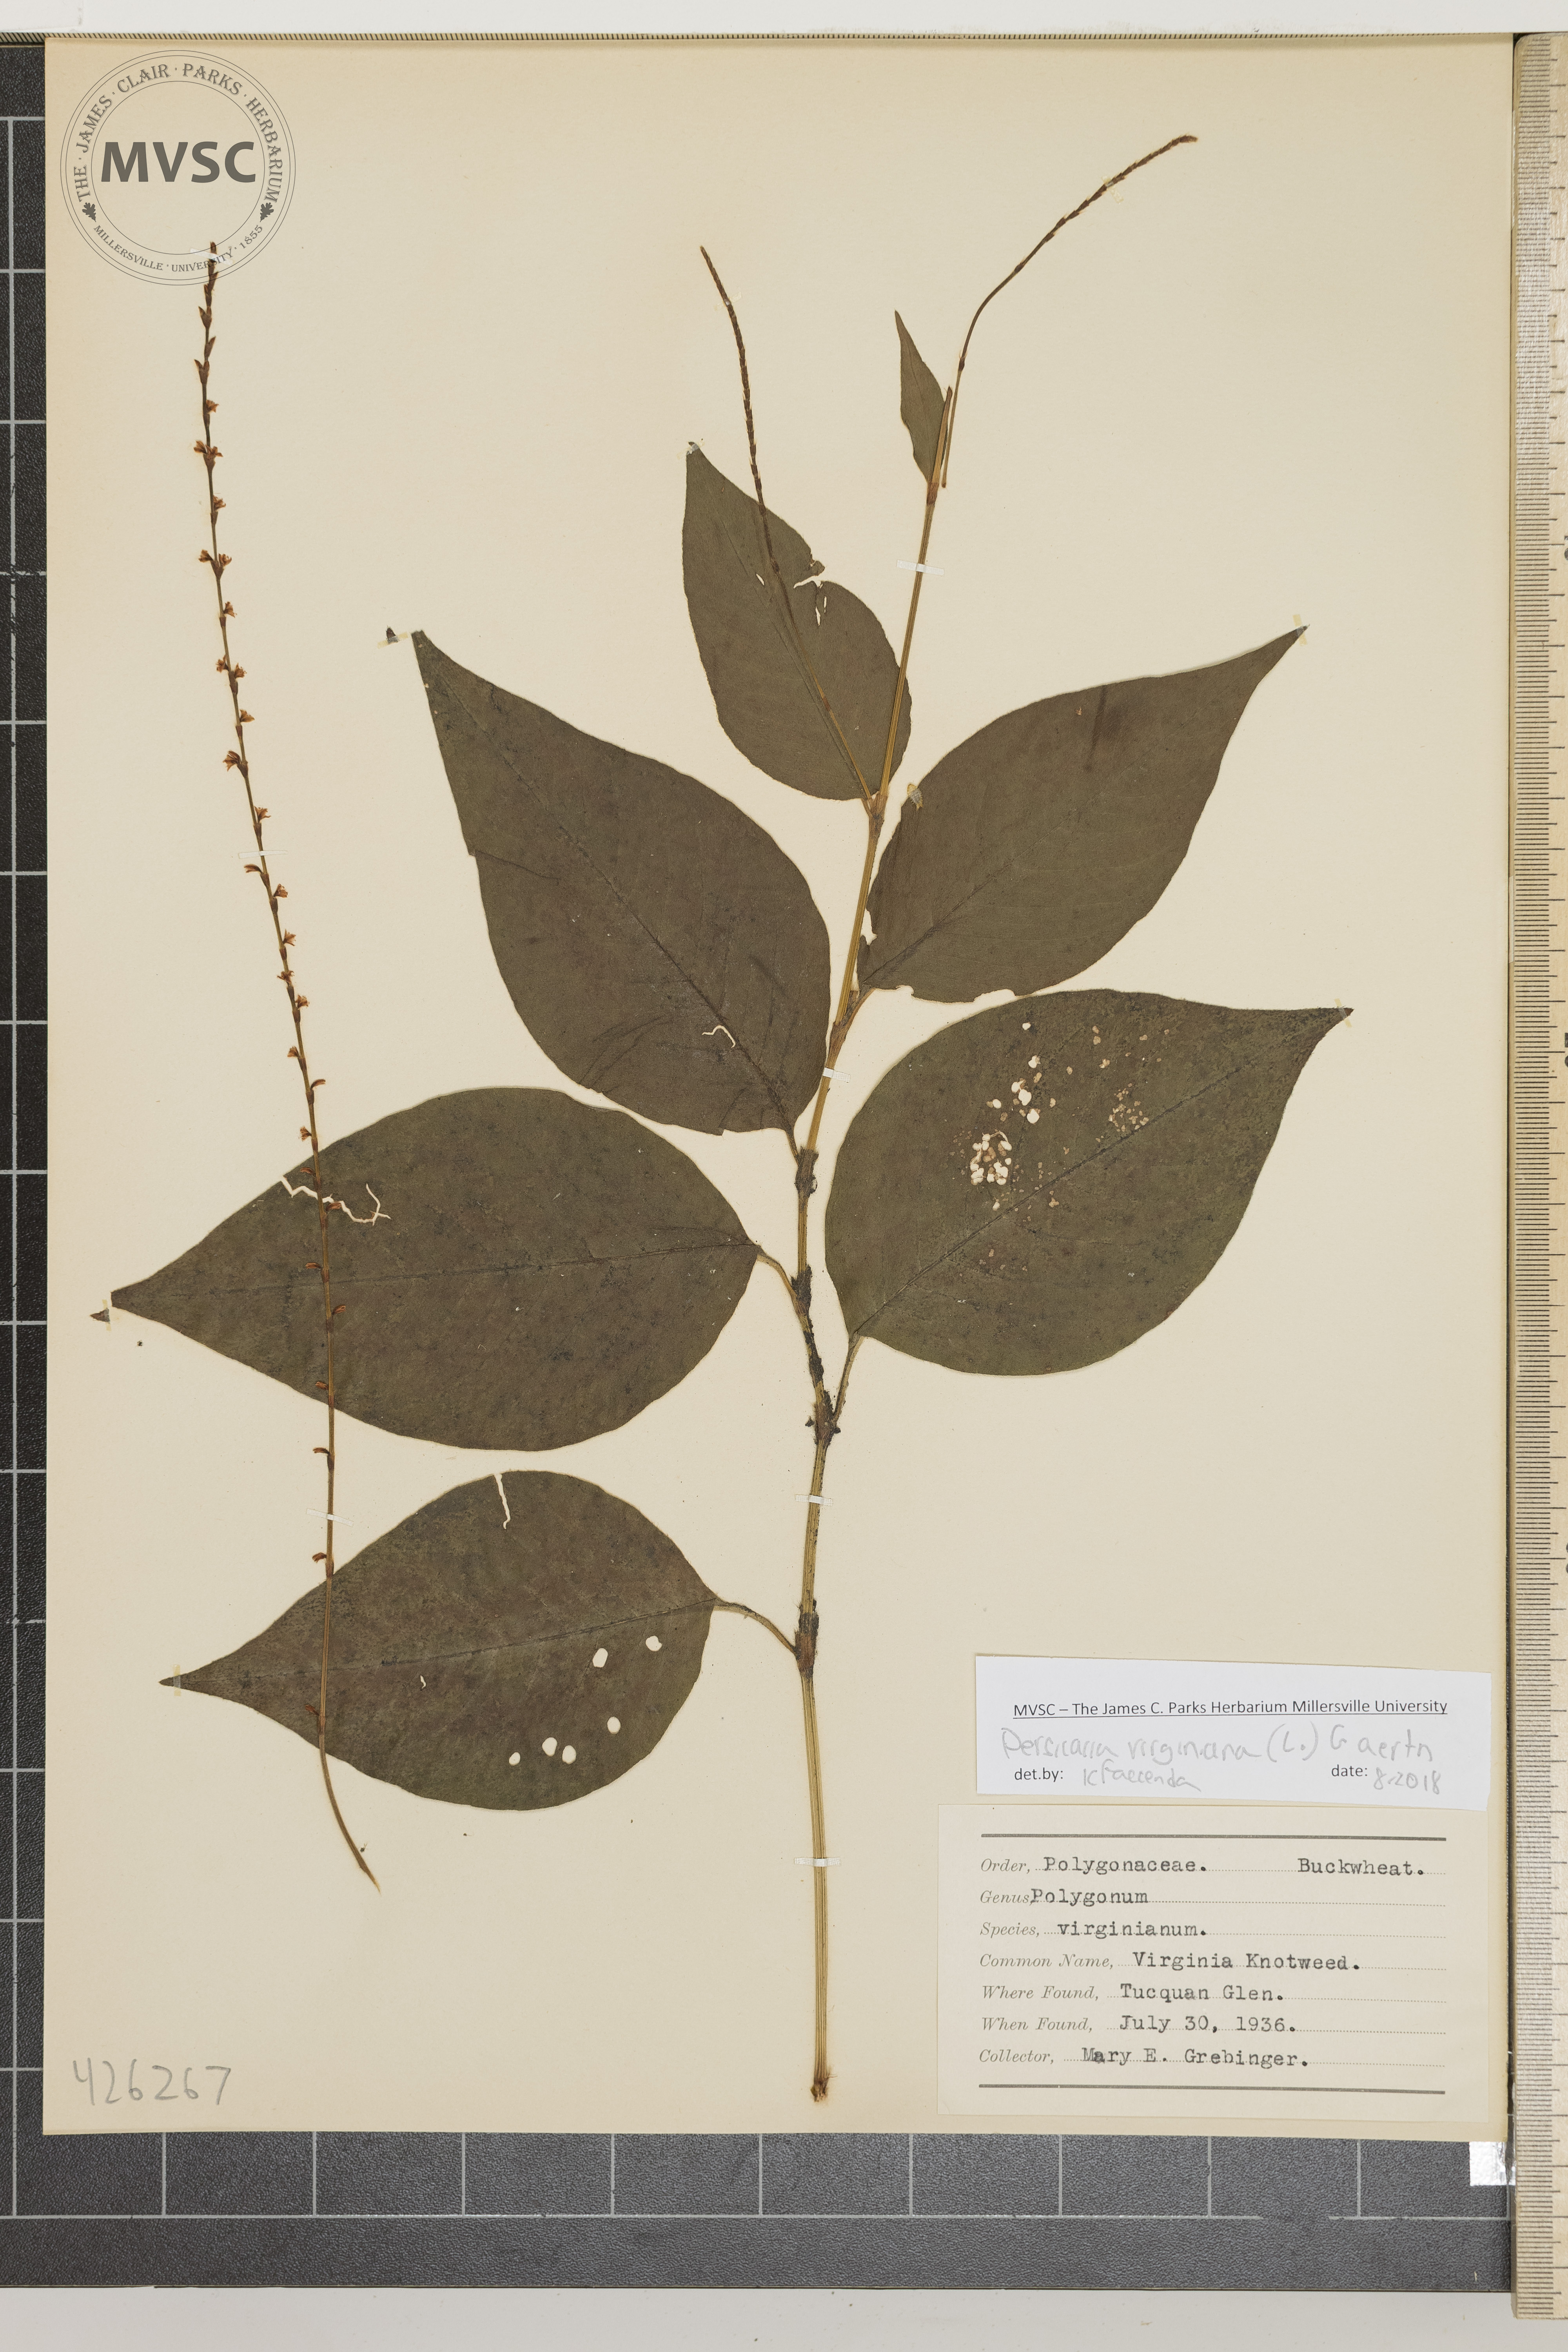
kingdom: Plantae
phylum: Tracheophyta
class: Magnoliopsida
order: Caryophyllales
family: Polygonaceae
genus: Persicaria
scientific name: Persicaria virginiana
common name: Virginia knotweed
